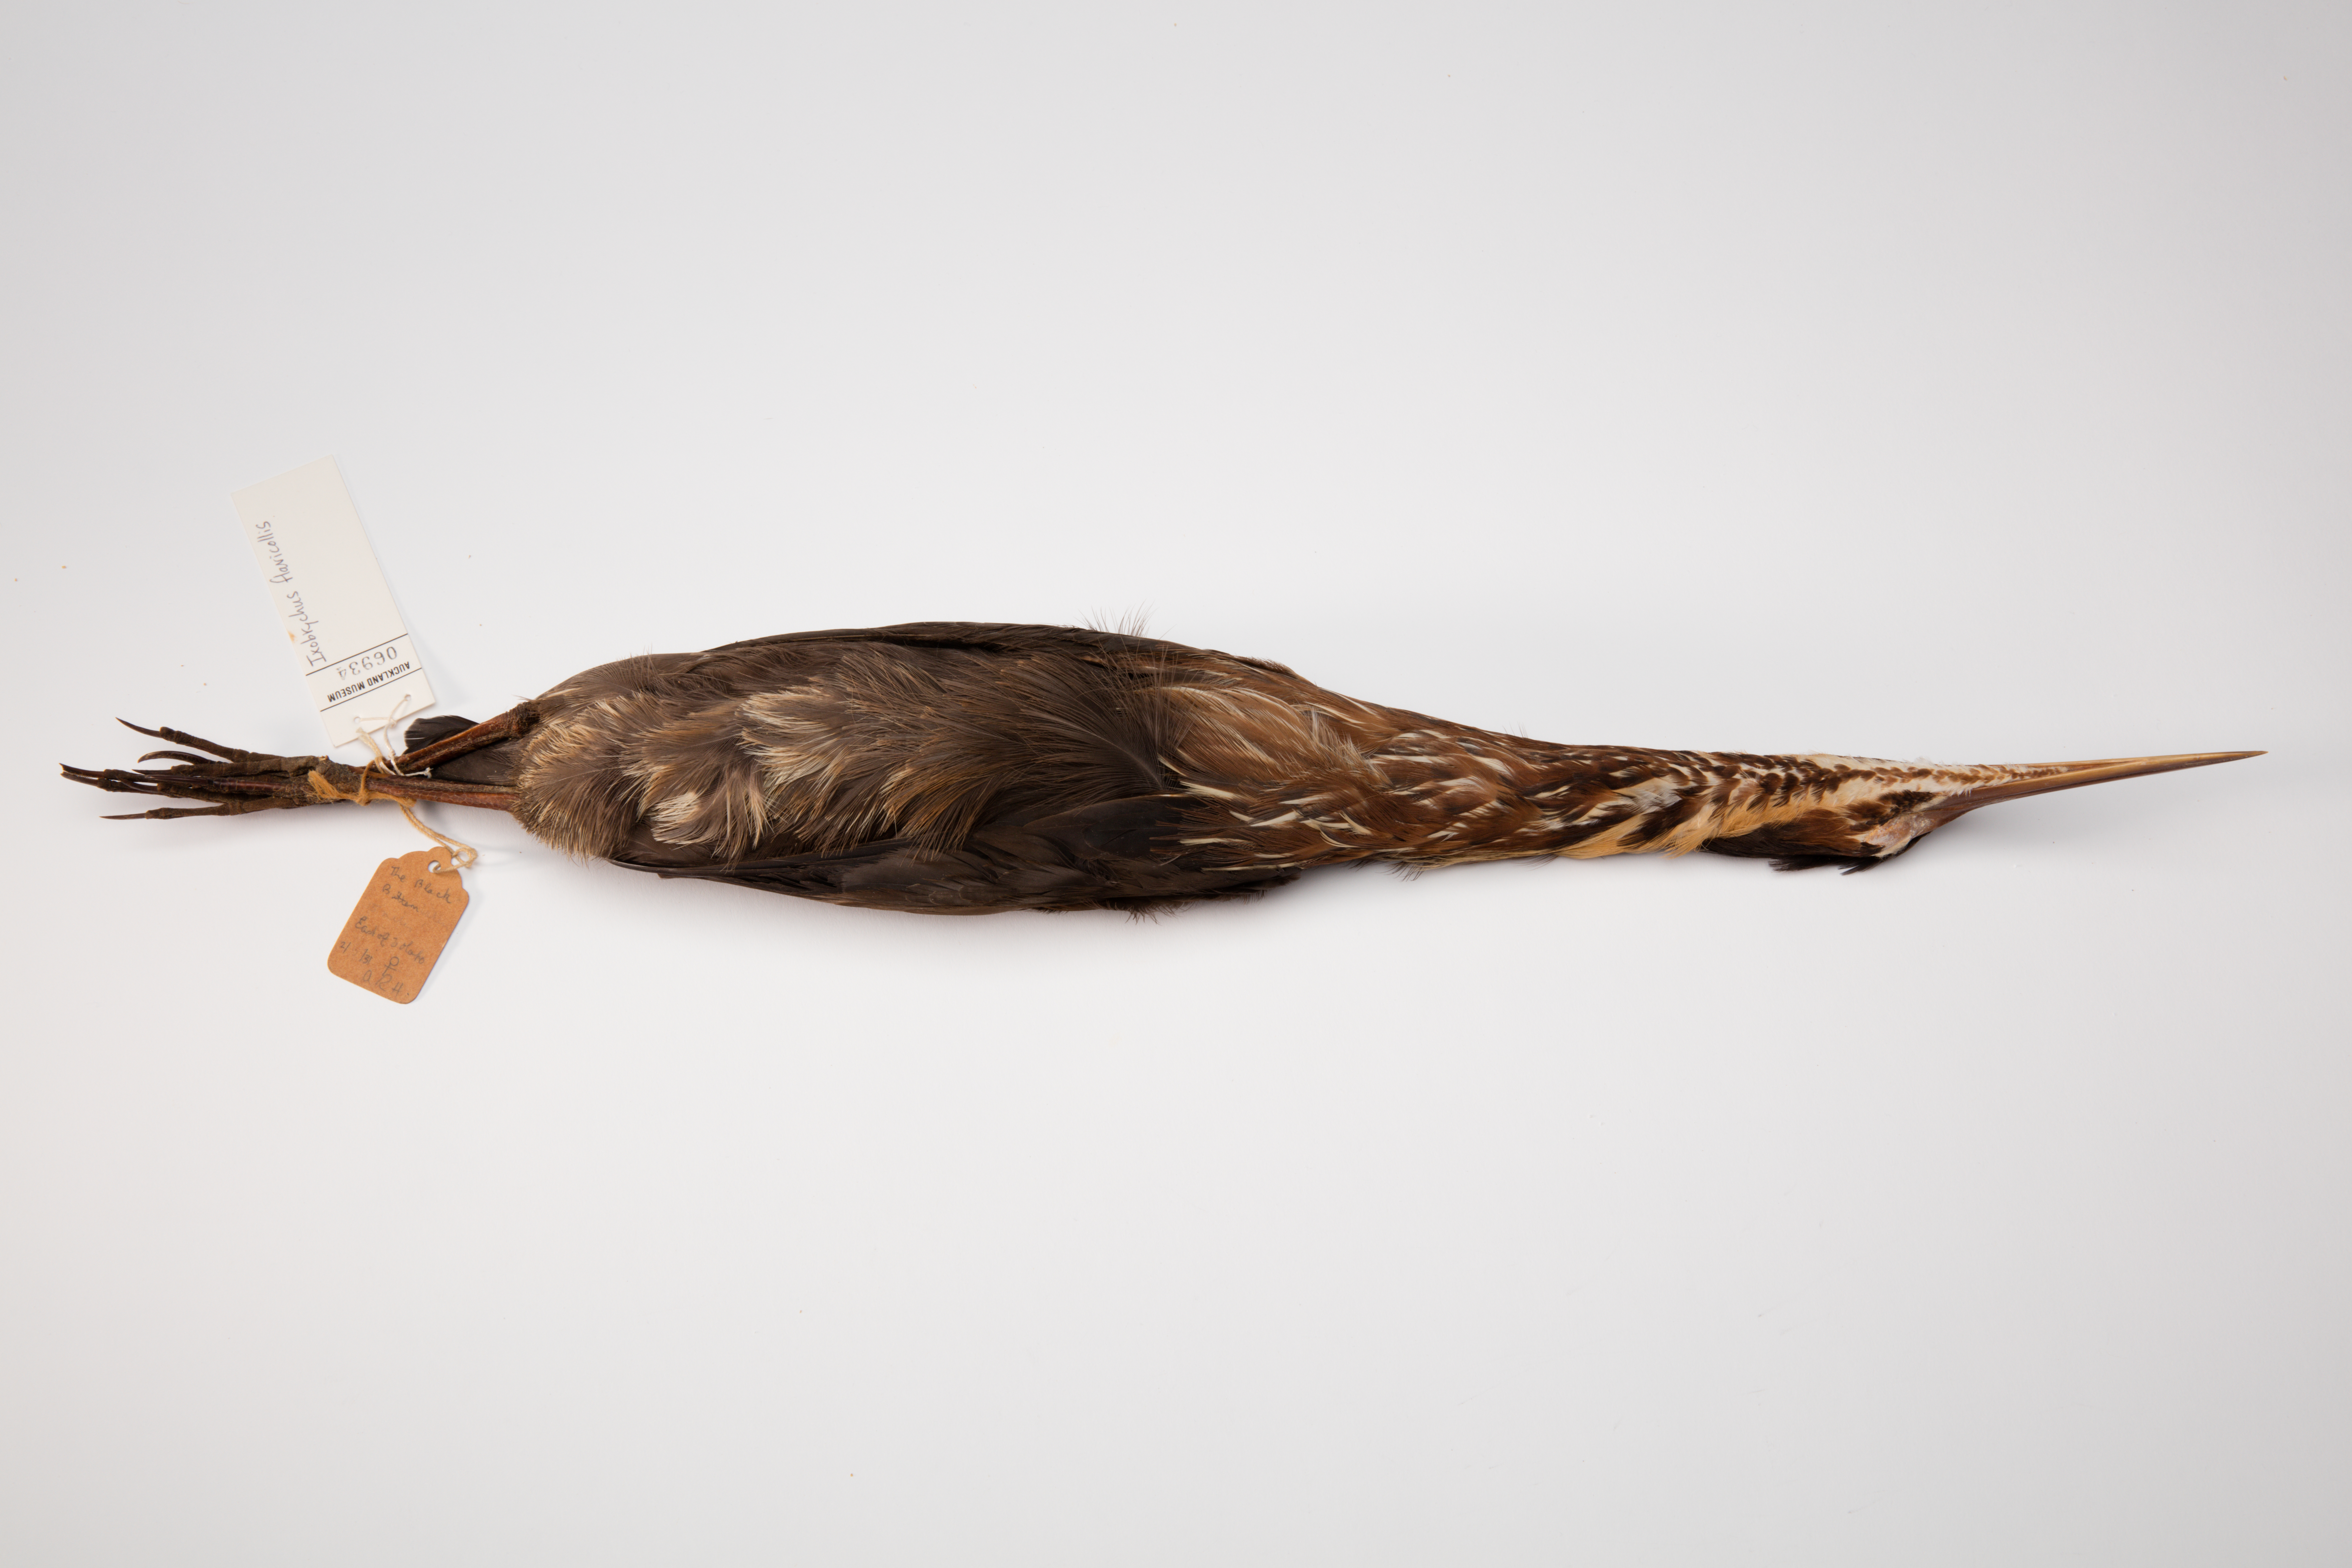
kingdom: Animalia
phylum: Chordata
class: Aves
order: Pelecaniformes
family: Ardeidae
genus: Dupetor
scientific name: Dupetor flavicollis
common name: Black bittern
